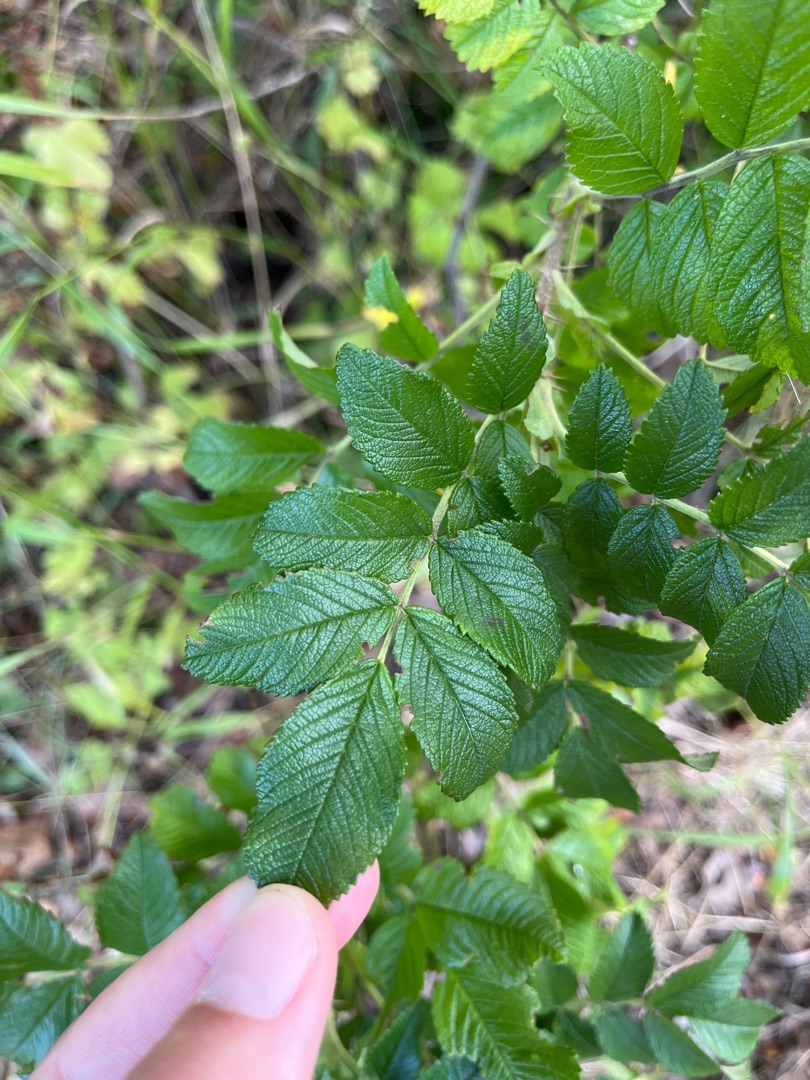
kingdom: Plantae
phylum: Tracheophyta
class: Magnoliopsida
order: Rosales
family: Rosaceae
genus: Rosa
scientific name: Rosa rugosa
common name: Rynket rose
